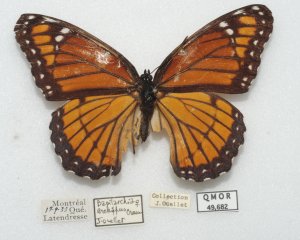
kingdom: Animalia
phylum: Arthropoda
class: Insecta
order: Lepidoptera
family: Nymphalidae
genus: Limenitis
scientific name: Limenitis archippus
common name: Viceroy
